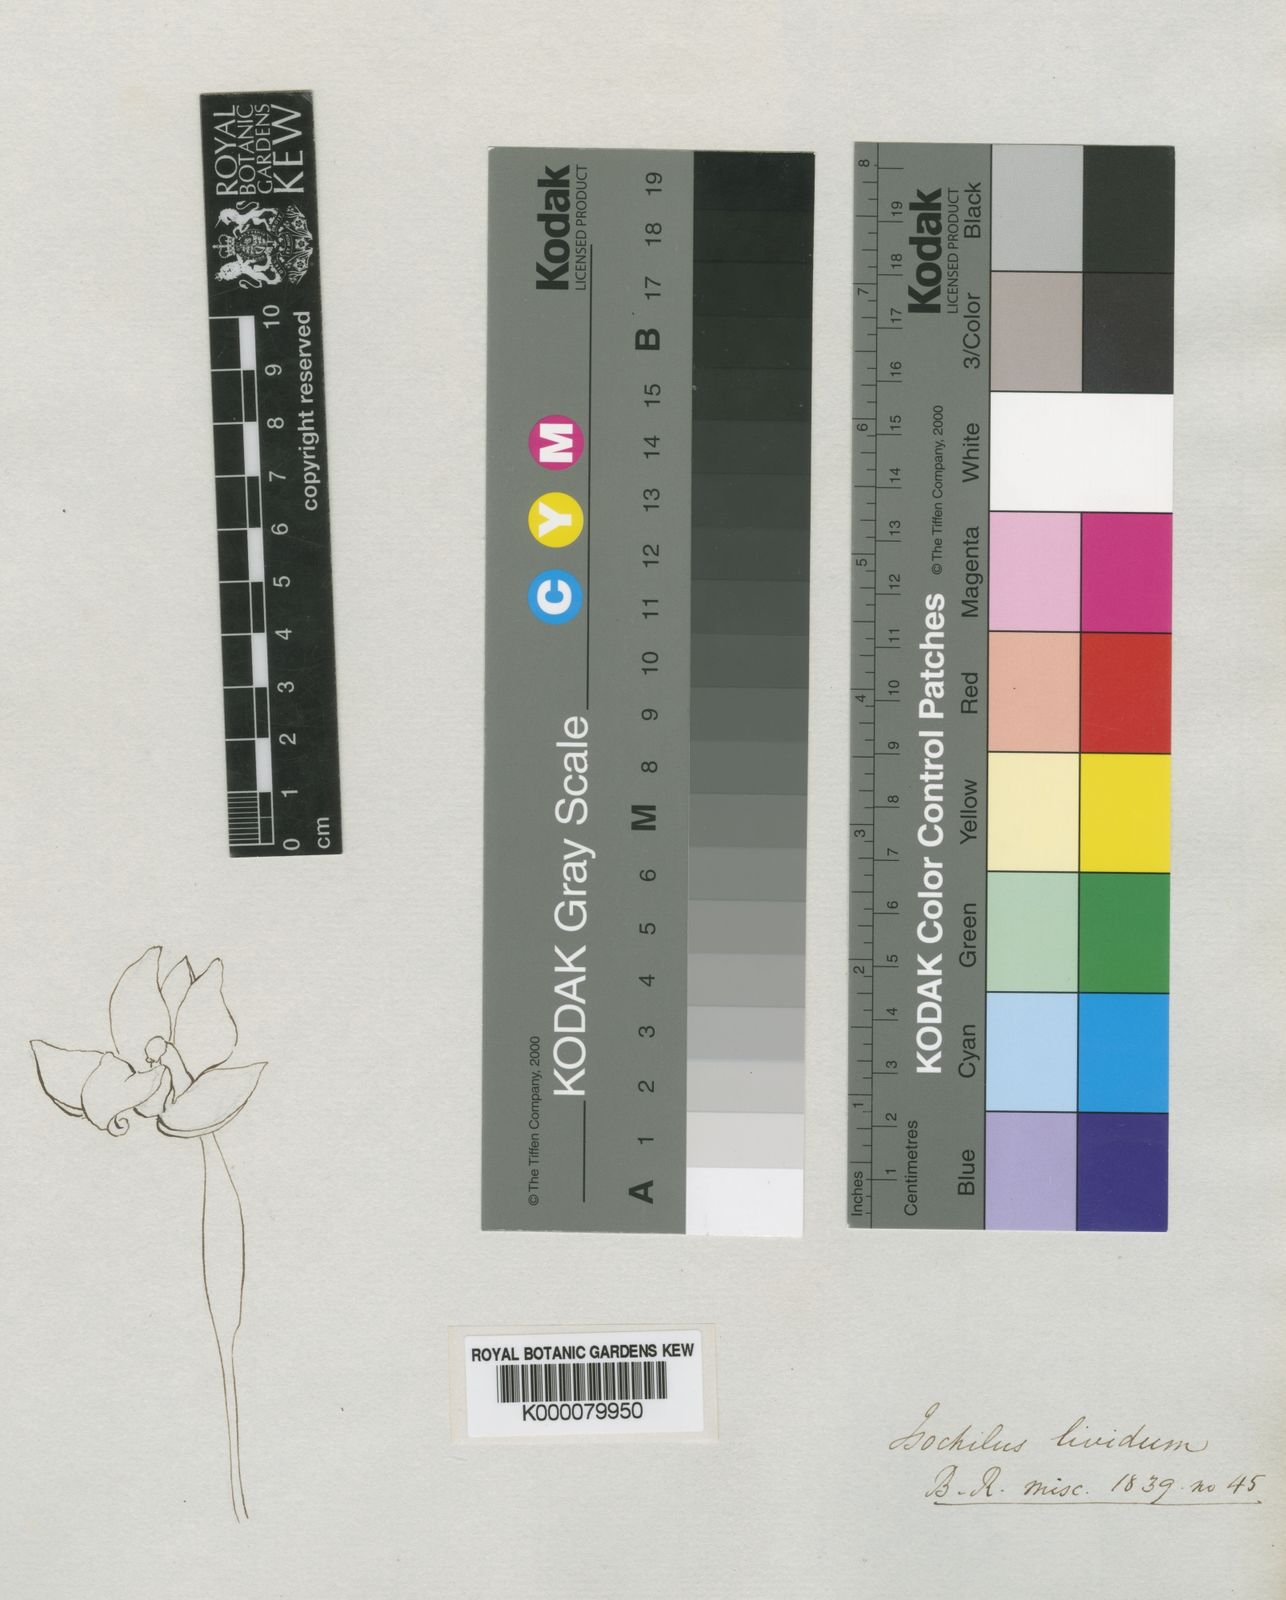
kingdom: Plantae
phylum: Tracheophyta
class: Liliopsida
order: Asparagales
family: Orchidaceae
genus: Scaphyglottis
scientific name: Scaphyglottis livida
